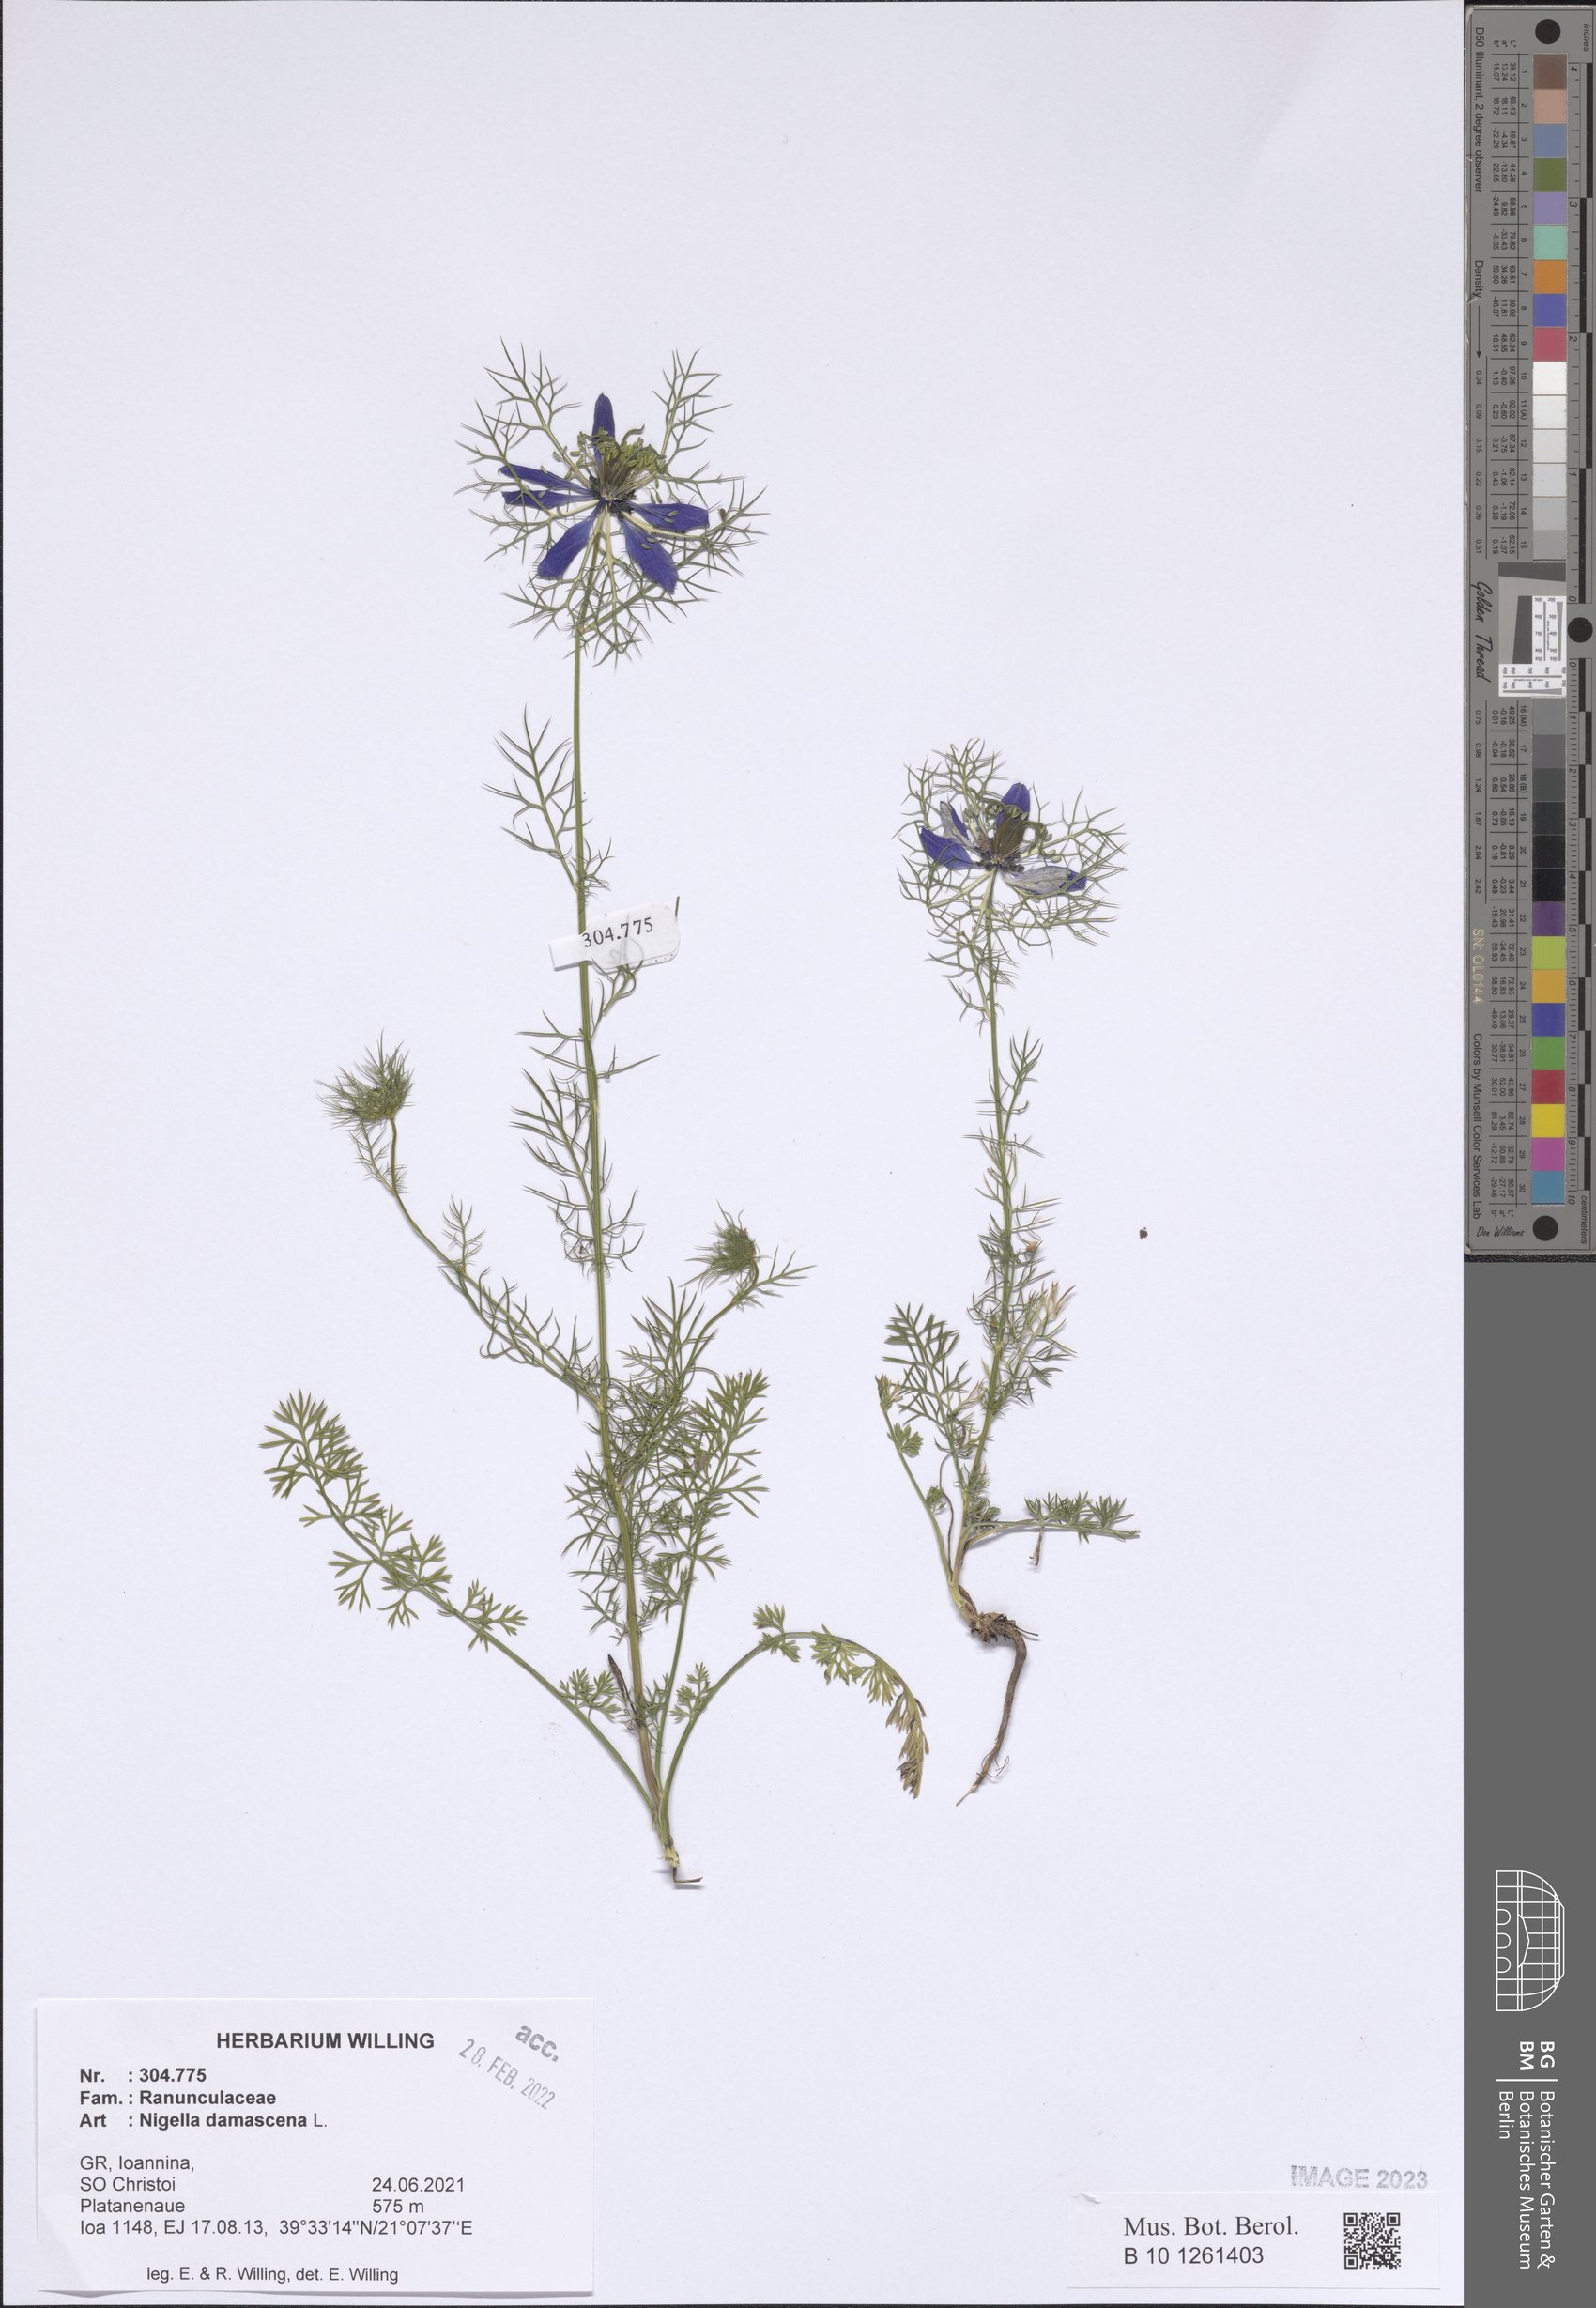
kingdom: Plantae
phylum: Tracheophyta
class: Magnoliopsida
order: Ranunculales
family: Ranunculaceae
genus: Nigella
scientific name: Nigella damascena
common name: Love-in-a-mist
